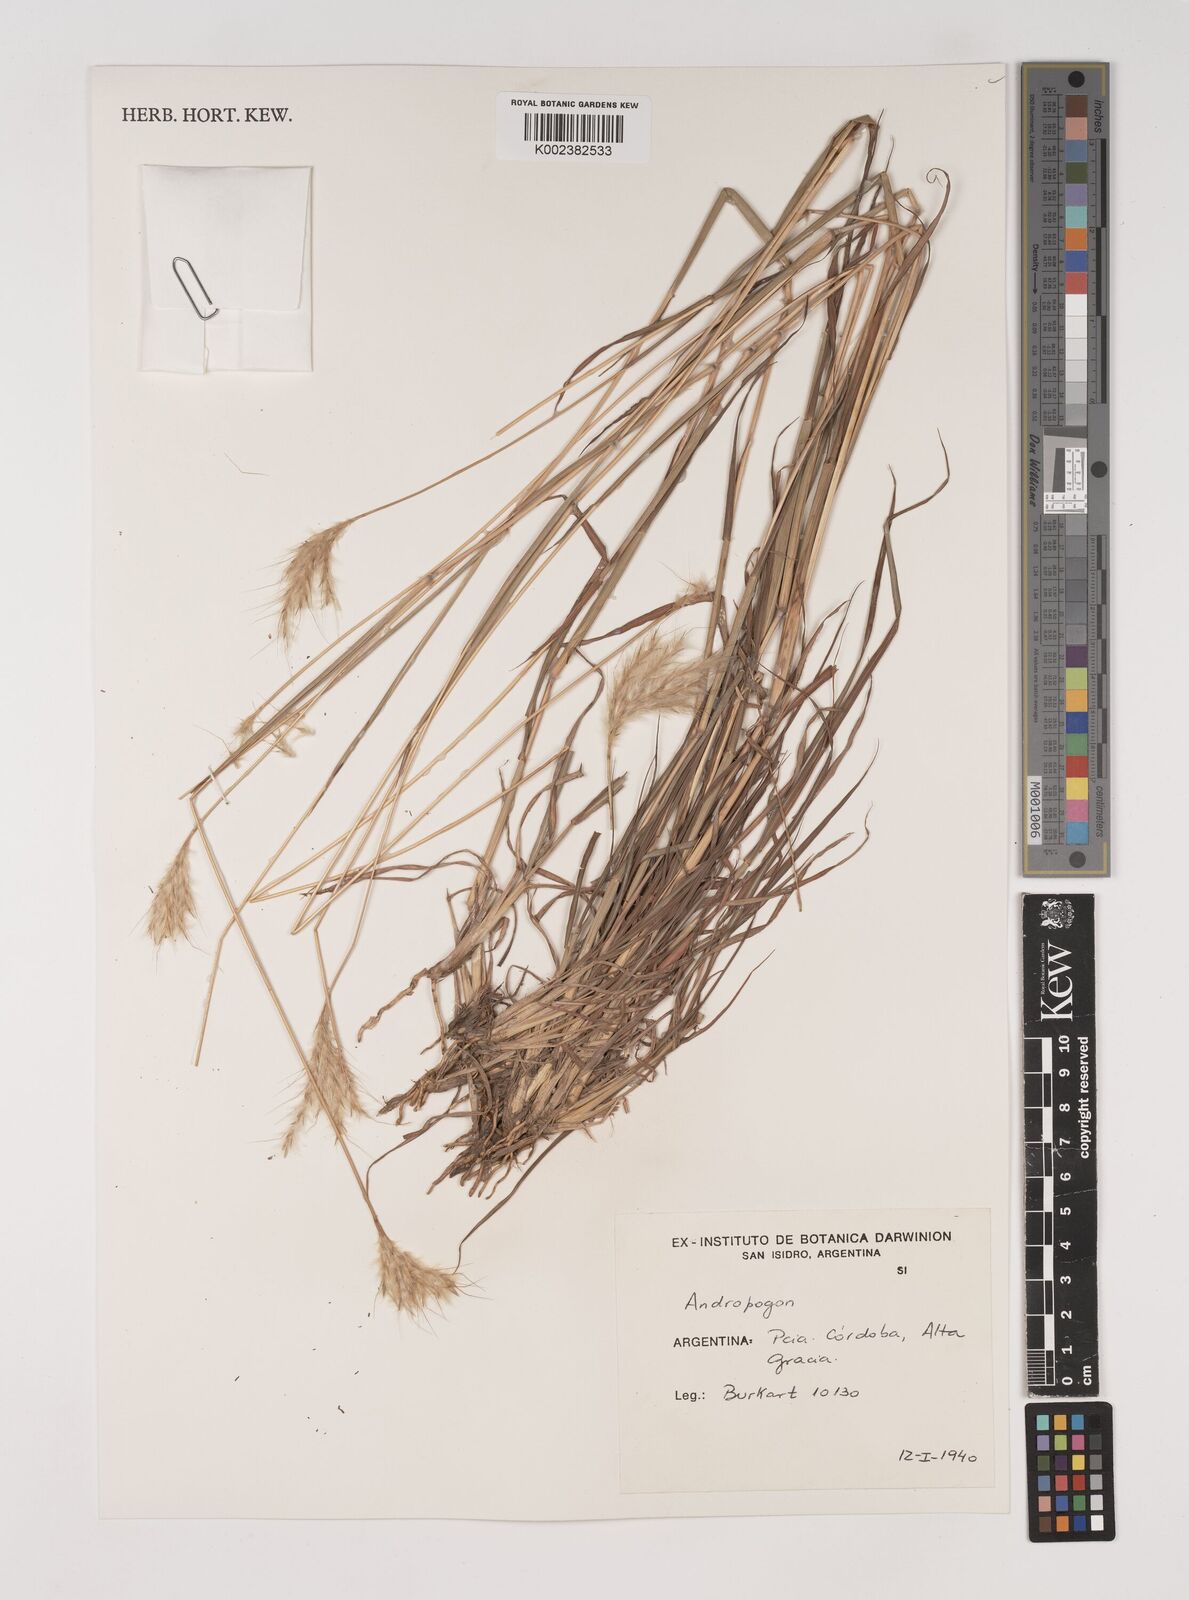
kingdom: Plantae
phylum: Tracheophyta
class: Liliopsida
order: Poales
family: Poaceae
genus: Bothriochloa
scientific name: Bothriochloa springfieldii
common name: Springfield bluestem
